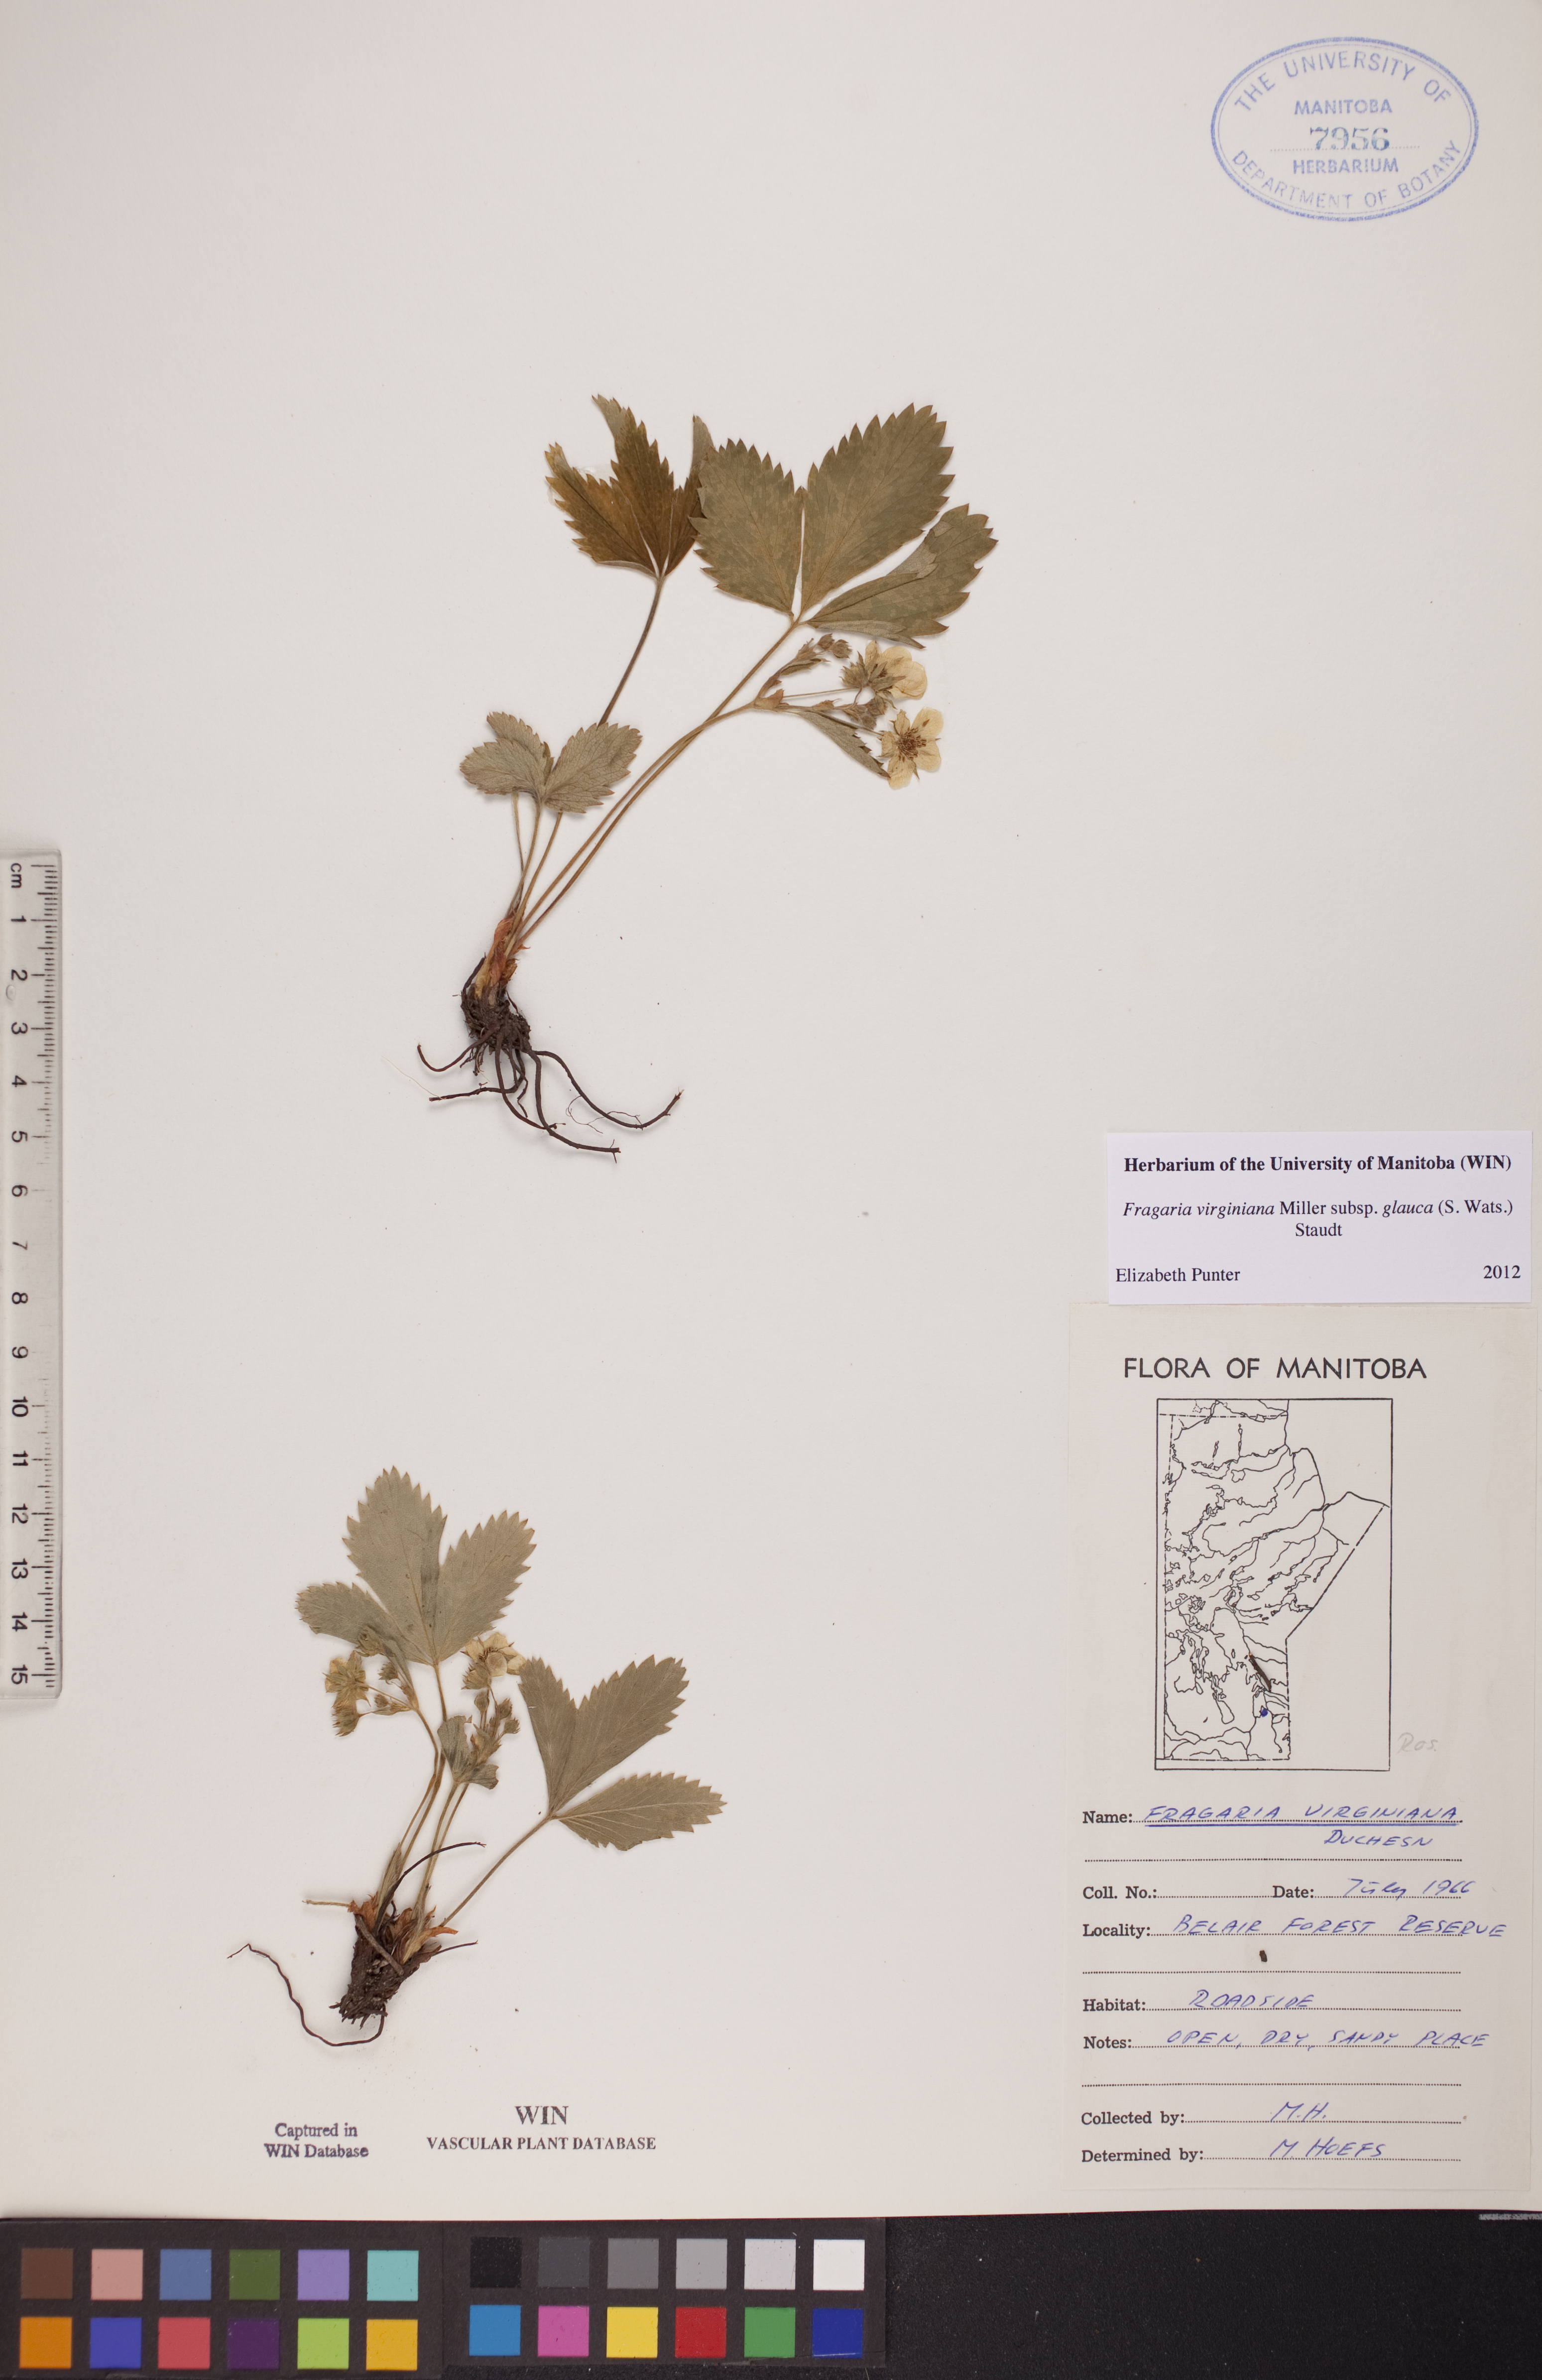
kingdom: Plantae
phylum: Tracheophyta
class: Magnoliopsida
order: Rosales
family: Rosaceae
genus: Fragaria
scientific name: Fragaria virginiana
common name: Thickleaved wild strawberry
